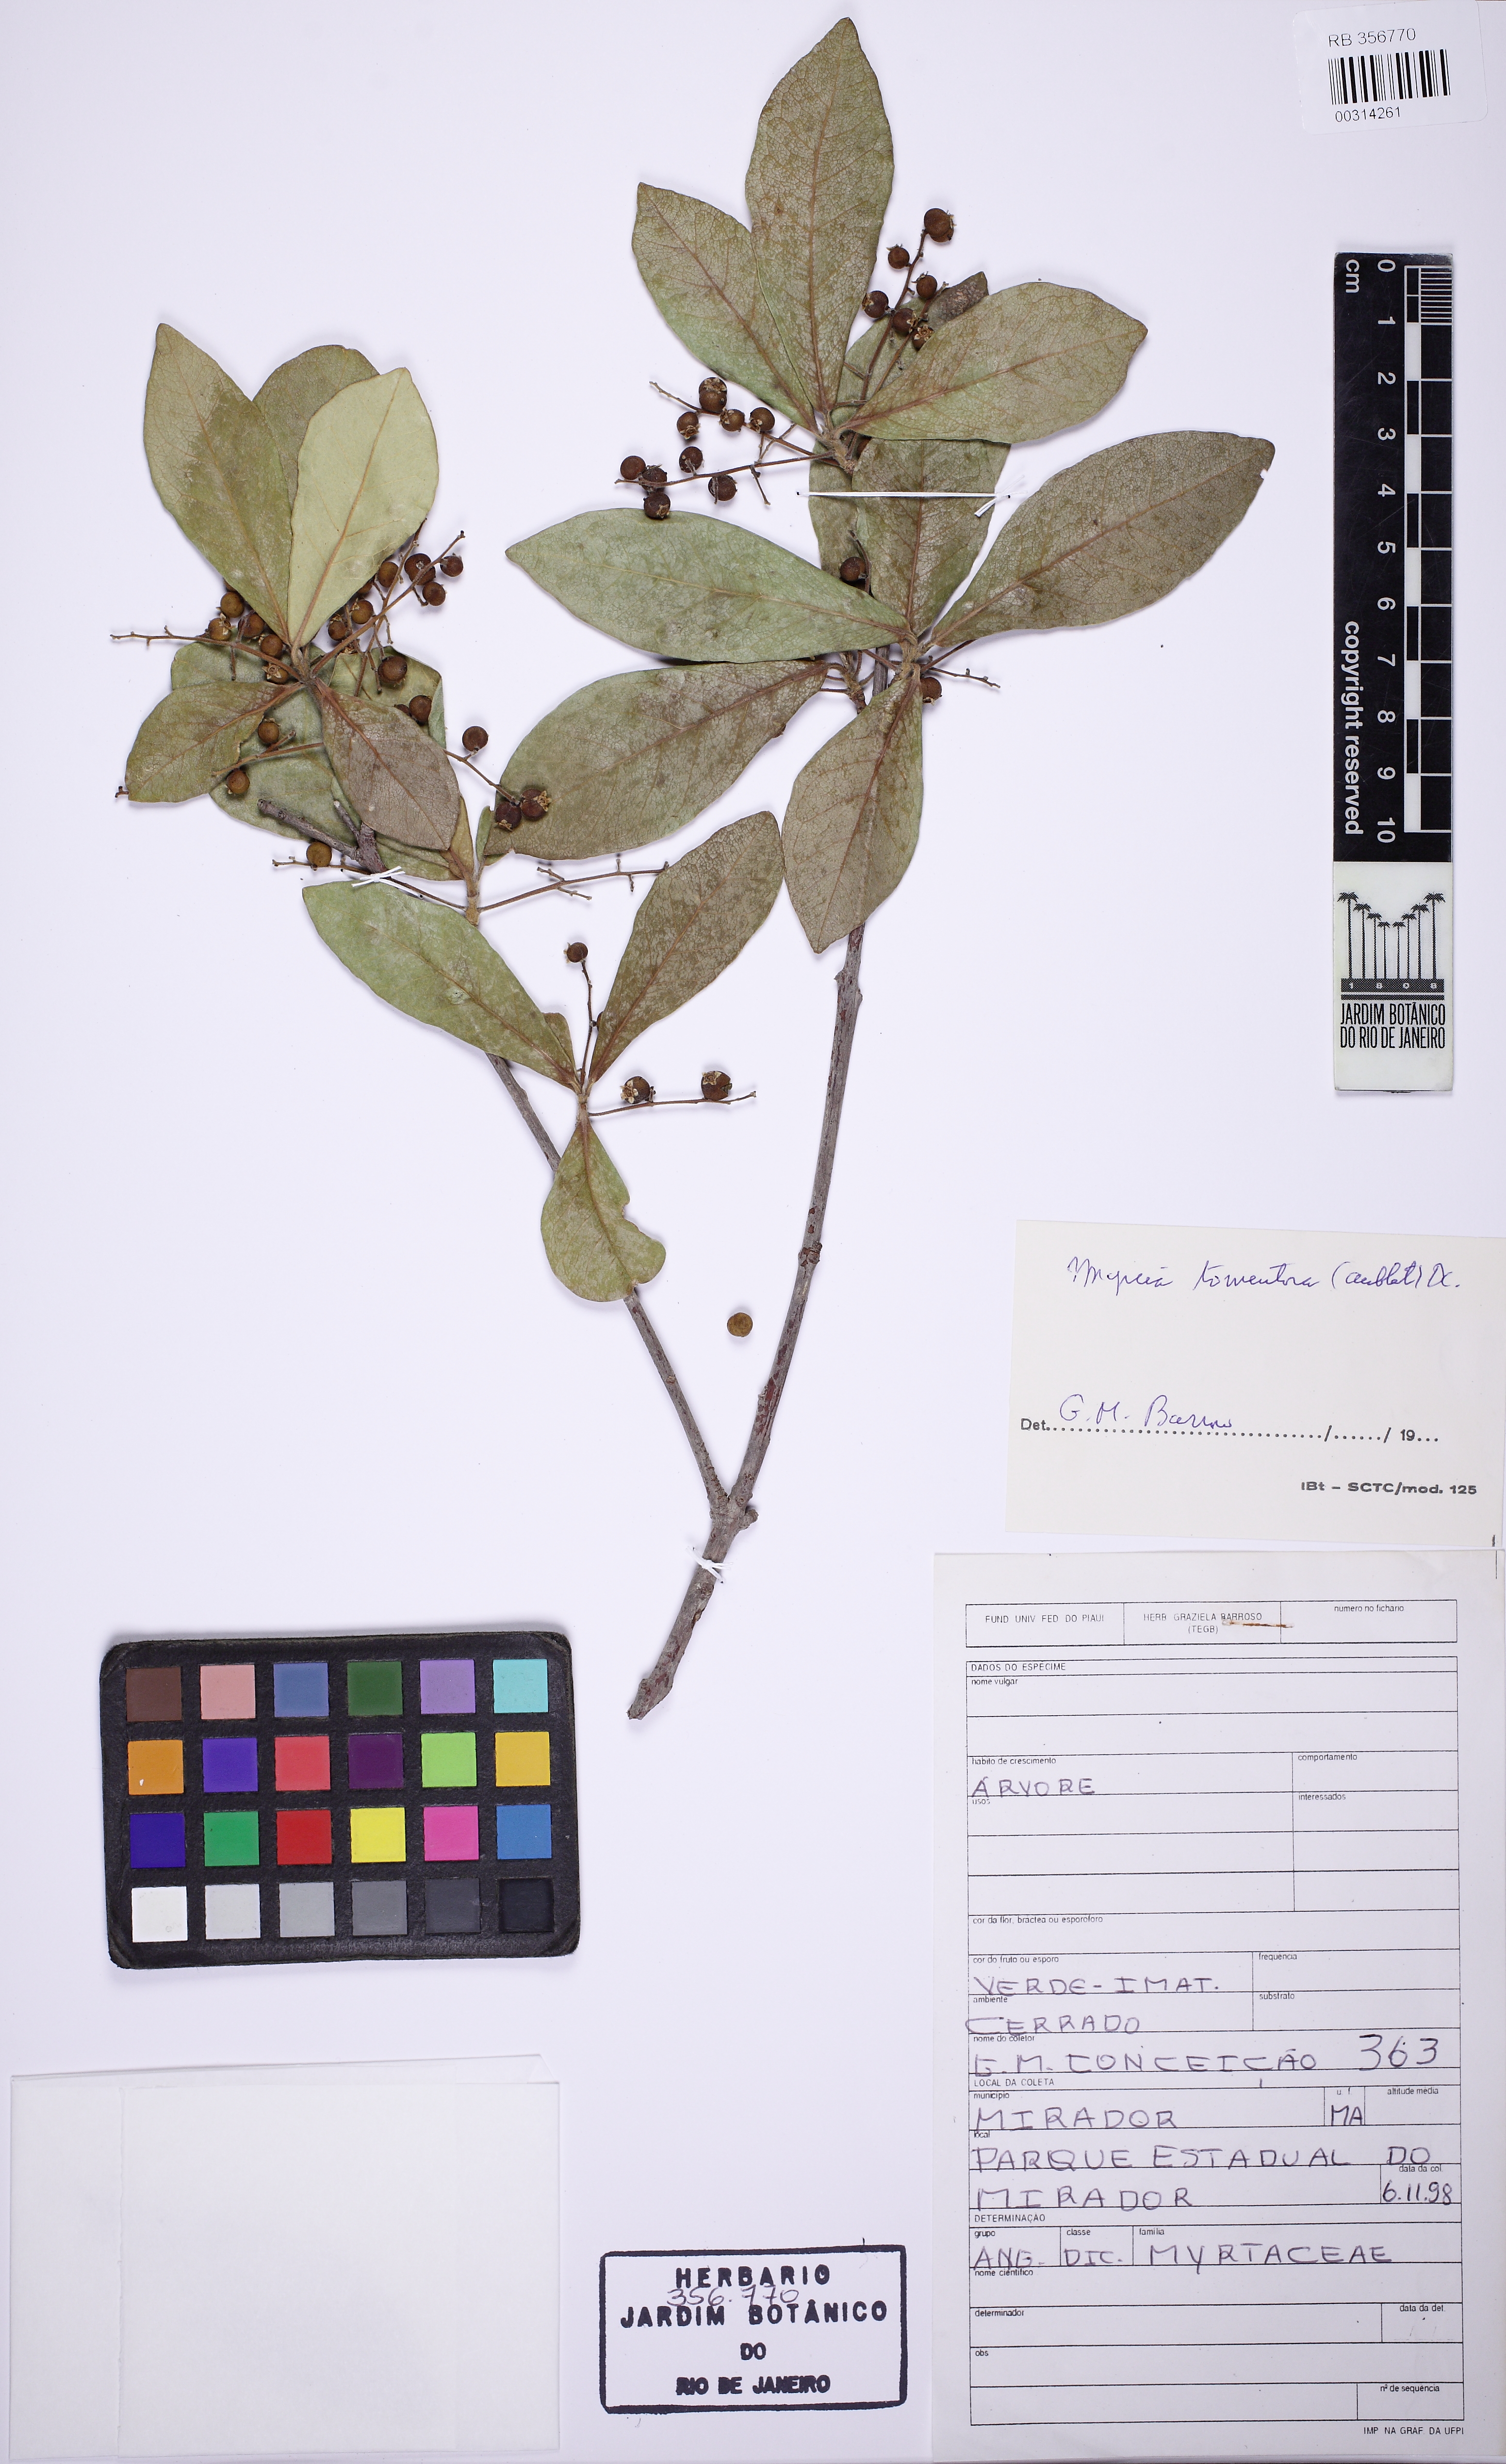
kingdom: Plantae
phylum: Tracheophyta
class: Magnoliopsida
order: Myrtales
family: Myrtaceae
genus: Myrcia
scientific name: Myrcia tomentosa
